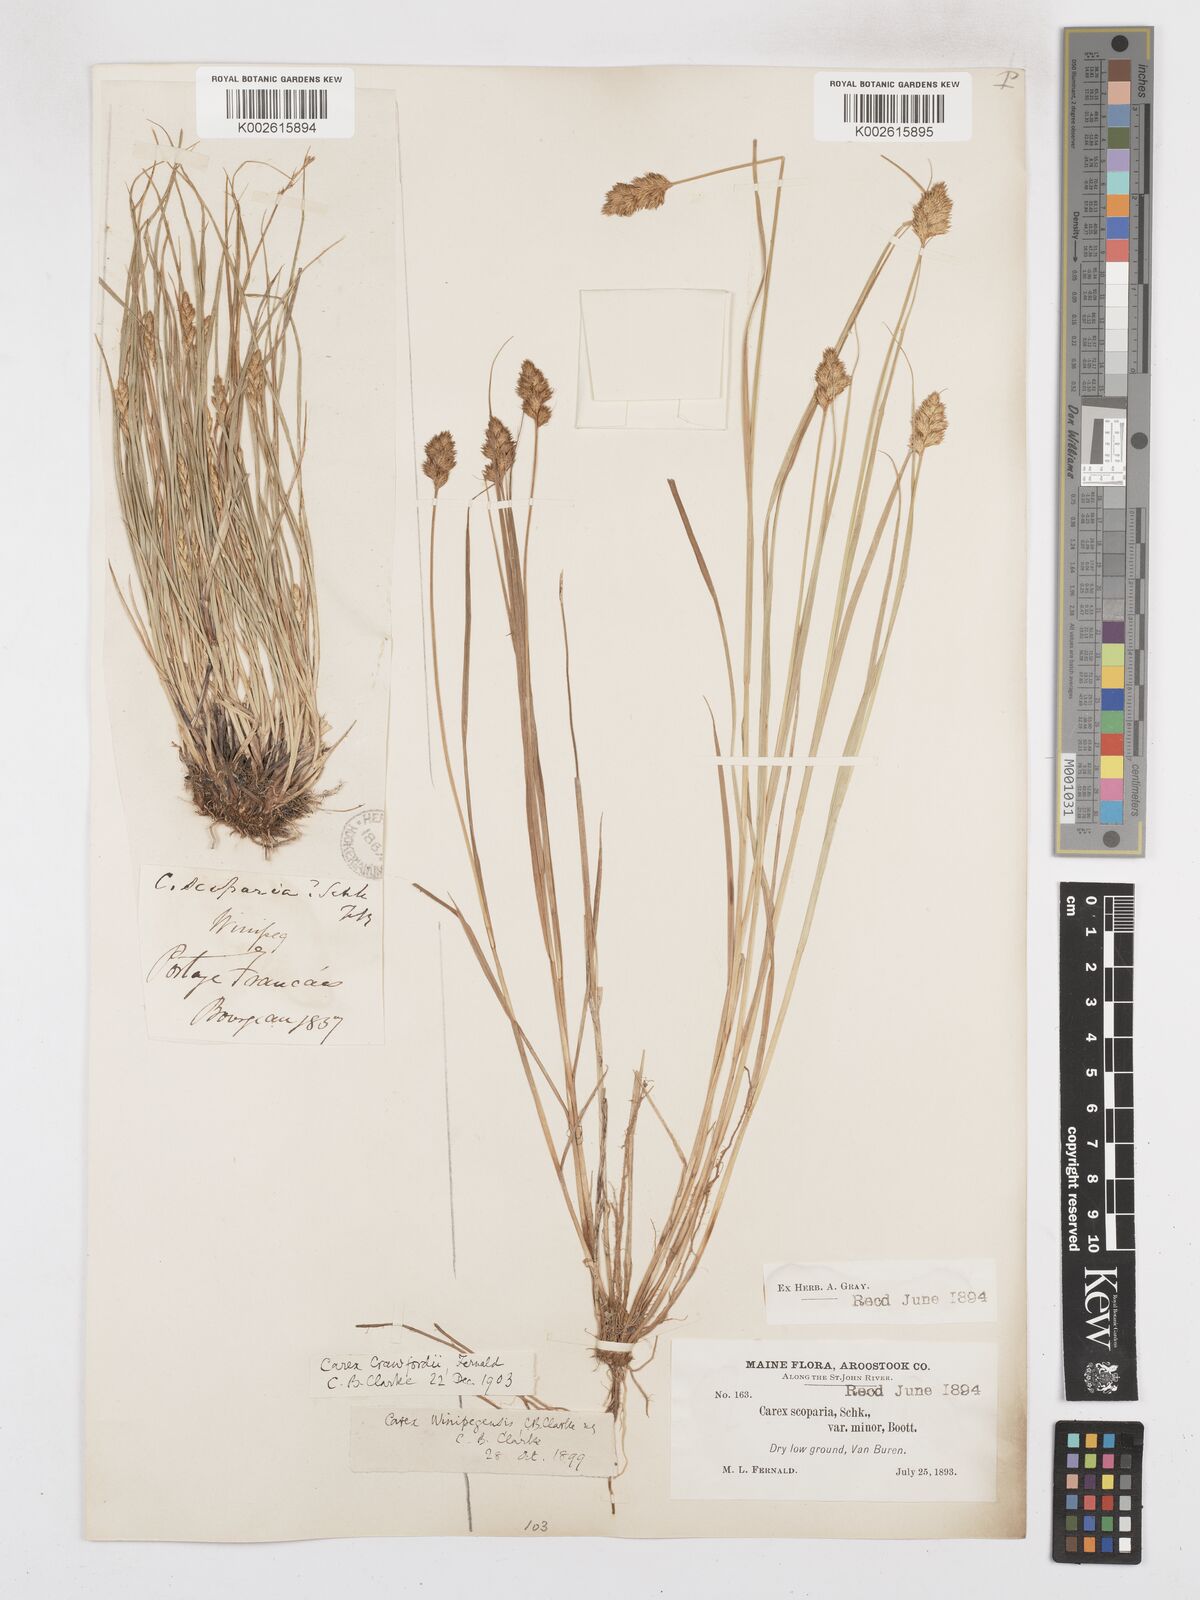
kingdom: Plantae
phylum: Tracheophyta
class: Liliopsida
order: Poales
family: Cyperaceae
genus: Carex
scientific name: Carex crawfordii
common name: Crawford's sedge
